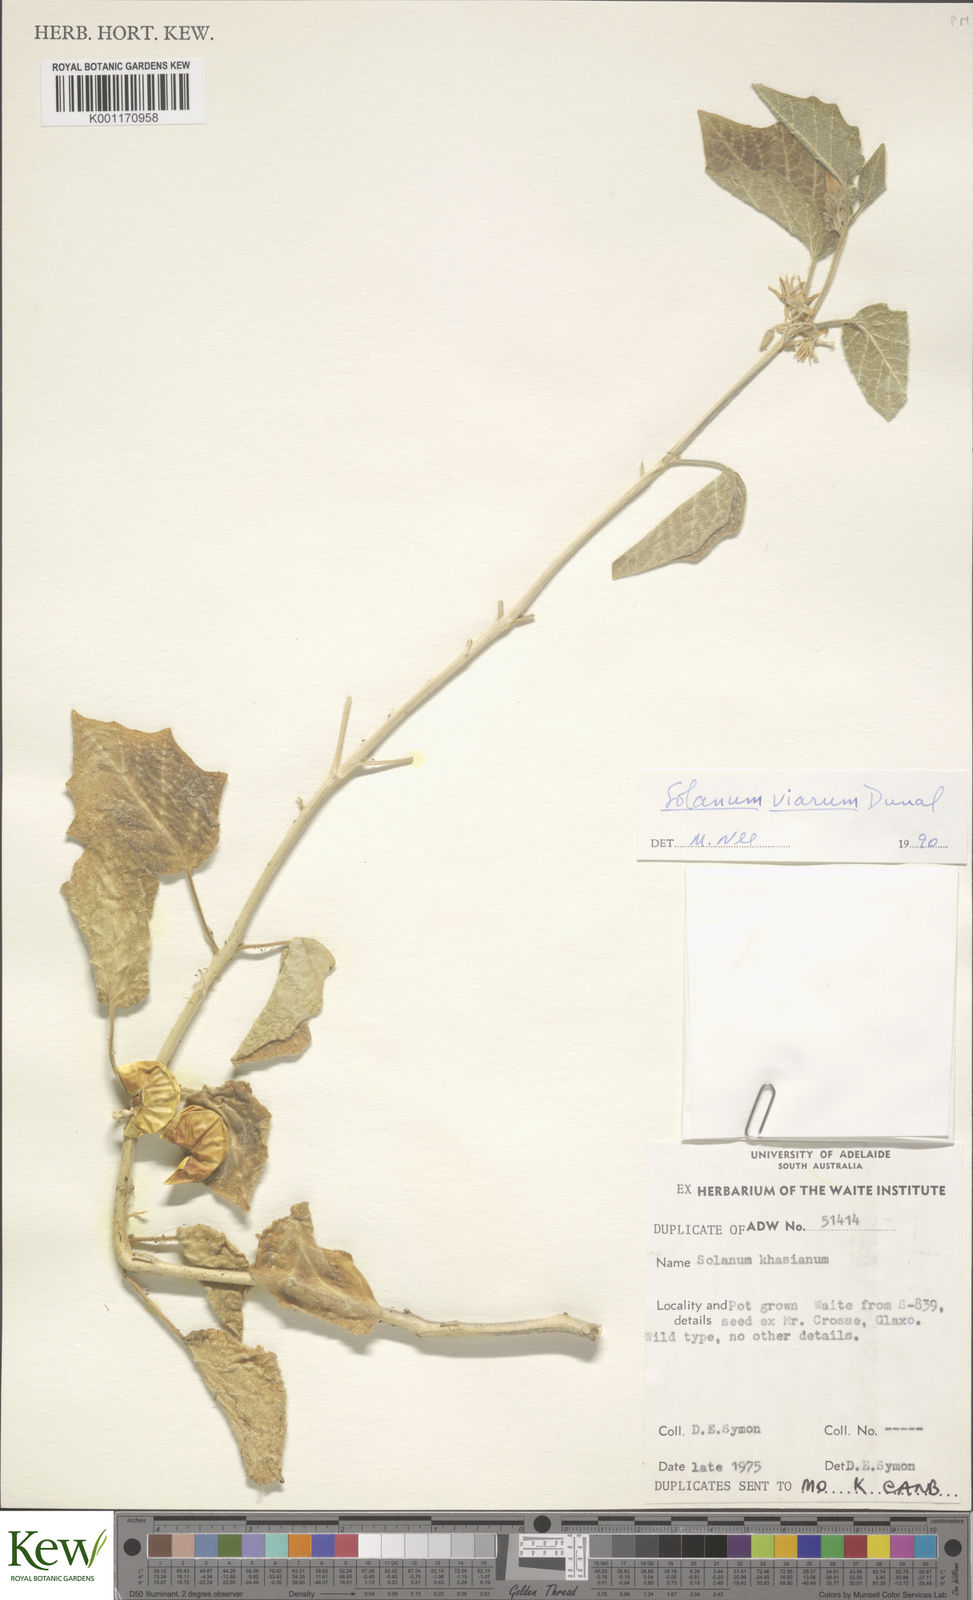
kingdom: Plantae
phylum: Tracheophyta
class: Magnoliopsida
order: Solanales
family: Solanaceae
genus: Solanum
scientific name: Solanum viarum
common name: Tropical soda apple
